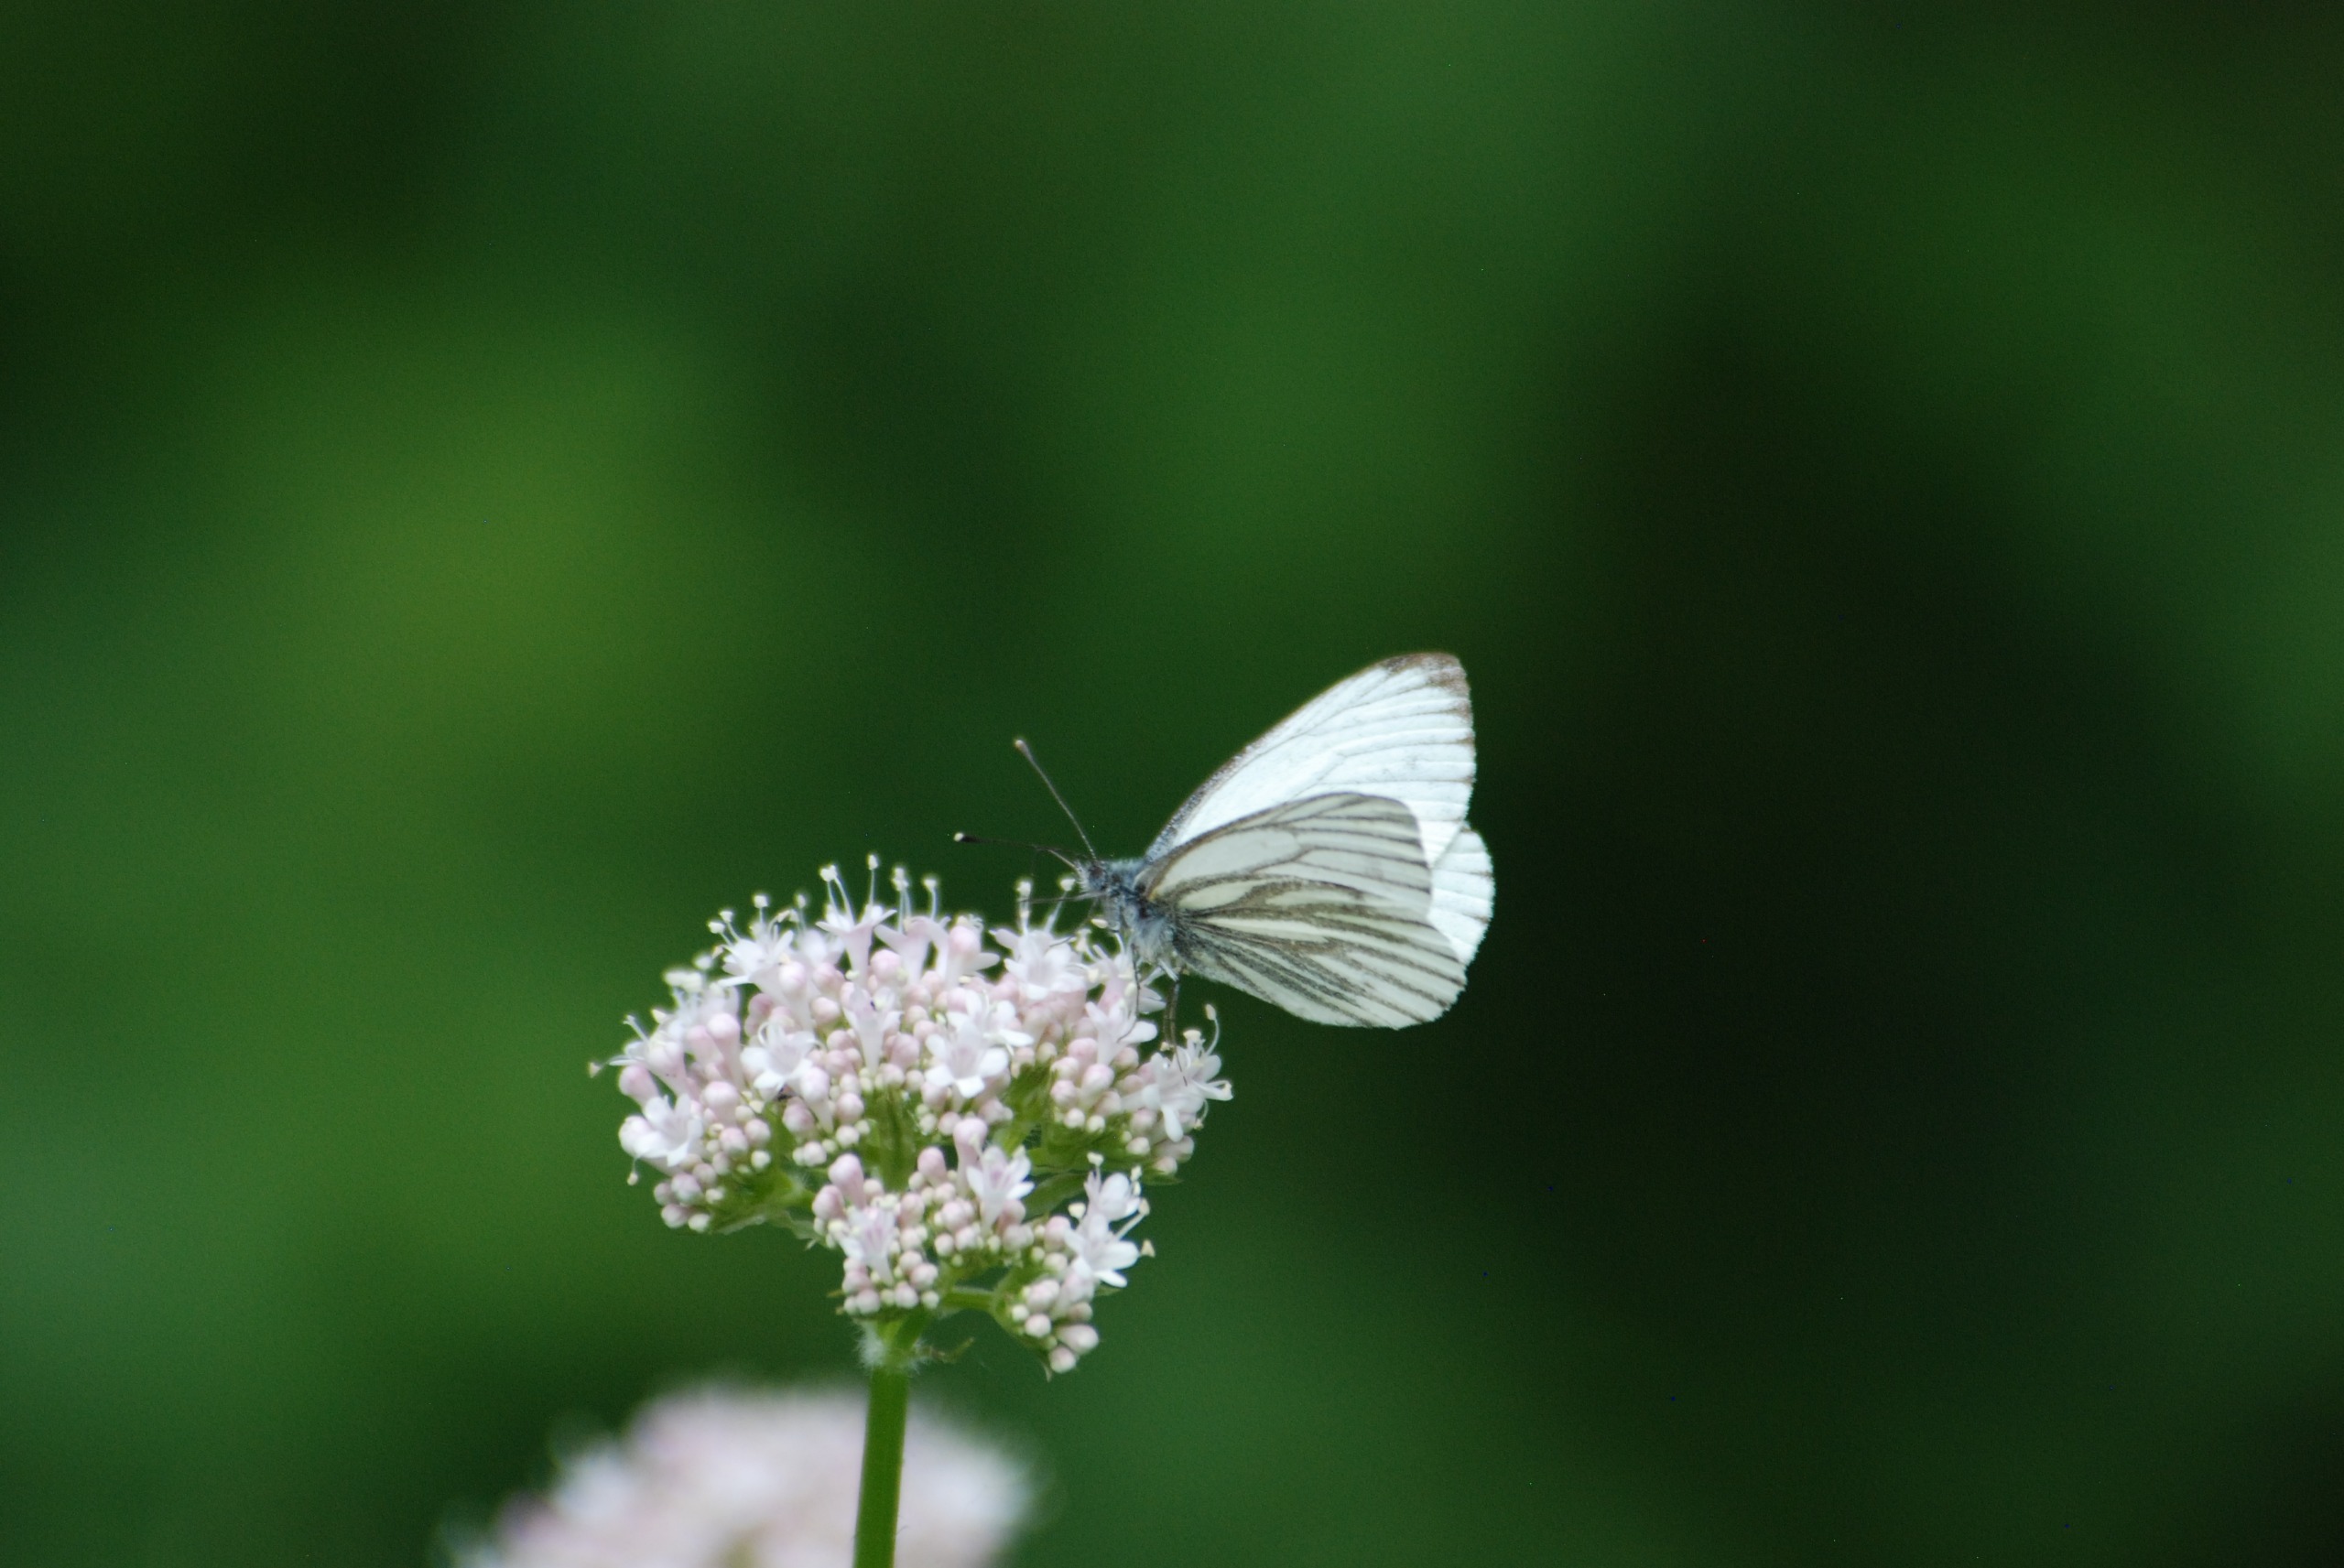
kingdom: Animalia
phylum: Arthropoda
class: Insecta
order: Lepidoptera
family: Pieridae
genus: Pieris
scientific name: Pieris napi
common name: Grønåret kålsommerfugl
